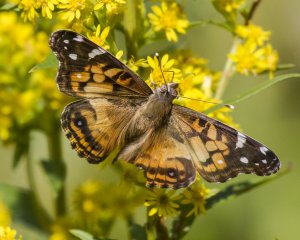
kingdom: Animalia
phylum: Arthropoda
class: Insecta
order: Lepidoptera
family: Nymphalidae
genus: Vanessa
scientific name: Vanessa virginiensis
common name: American Lady
